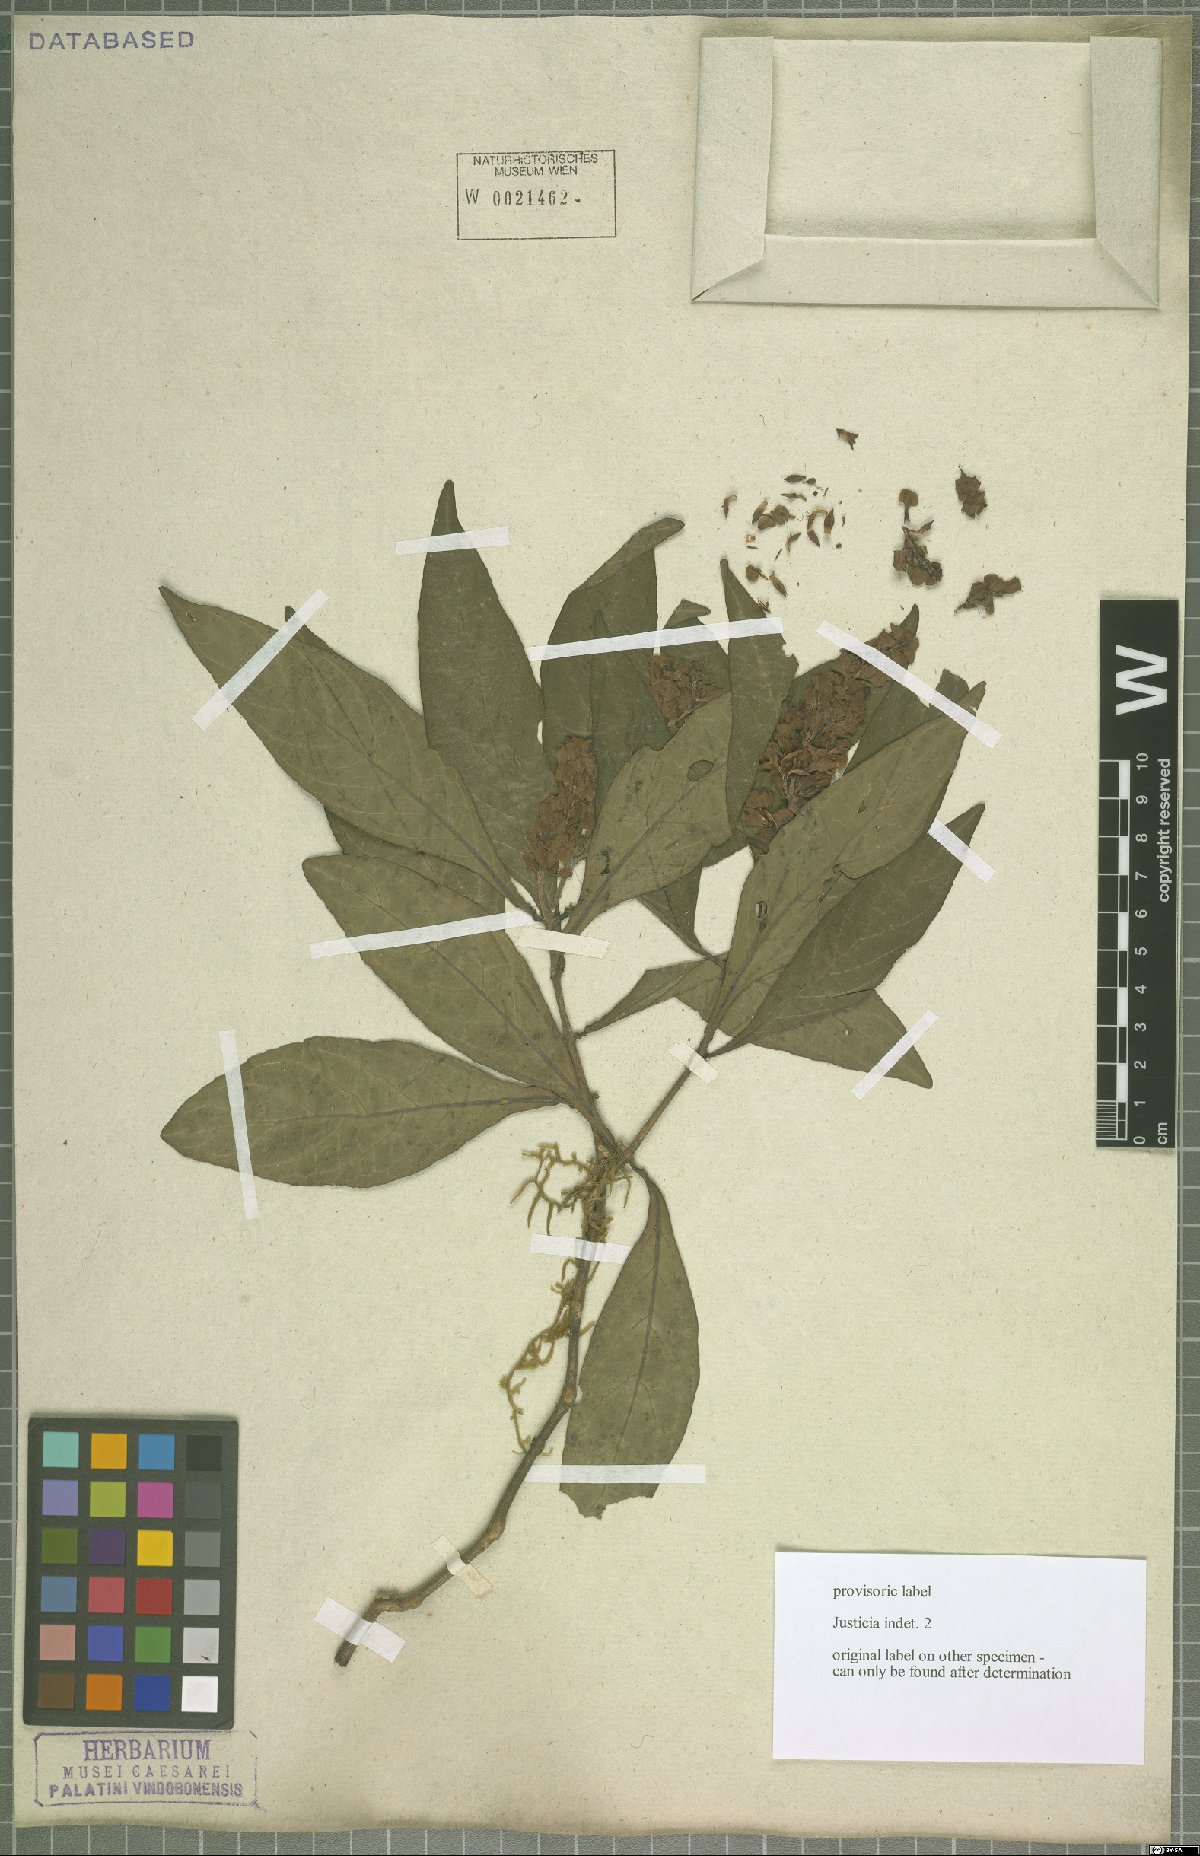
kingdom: Plantae
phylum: Tracheophyta
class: Magnoliopsida
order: Lamiales
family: Acanthaceae
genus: Justicia
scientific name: Justicia
